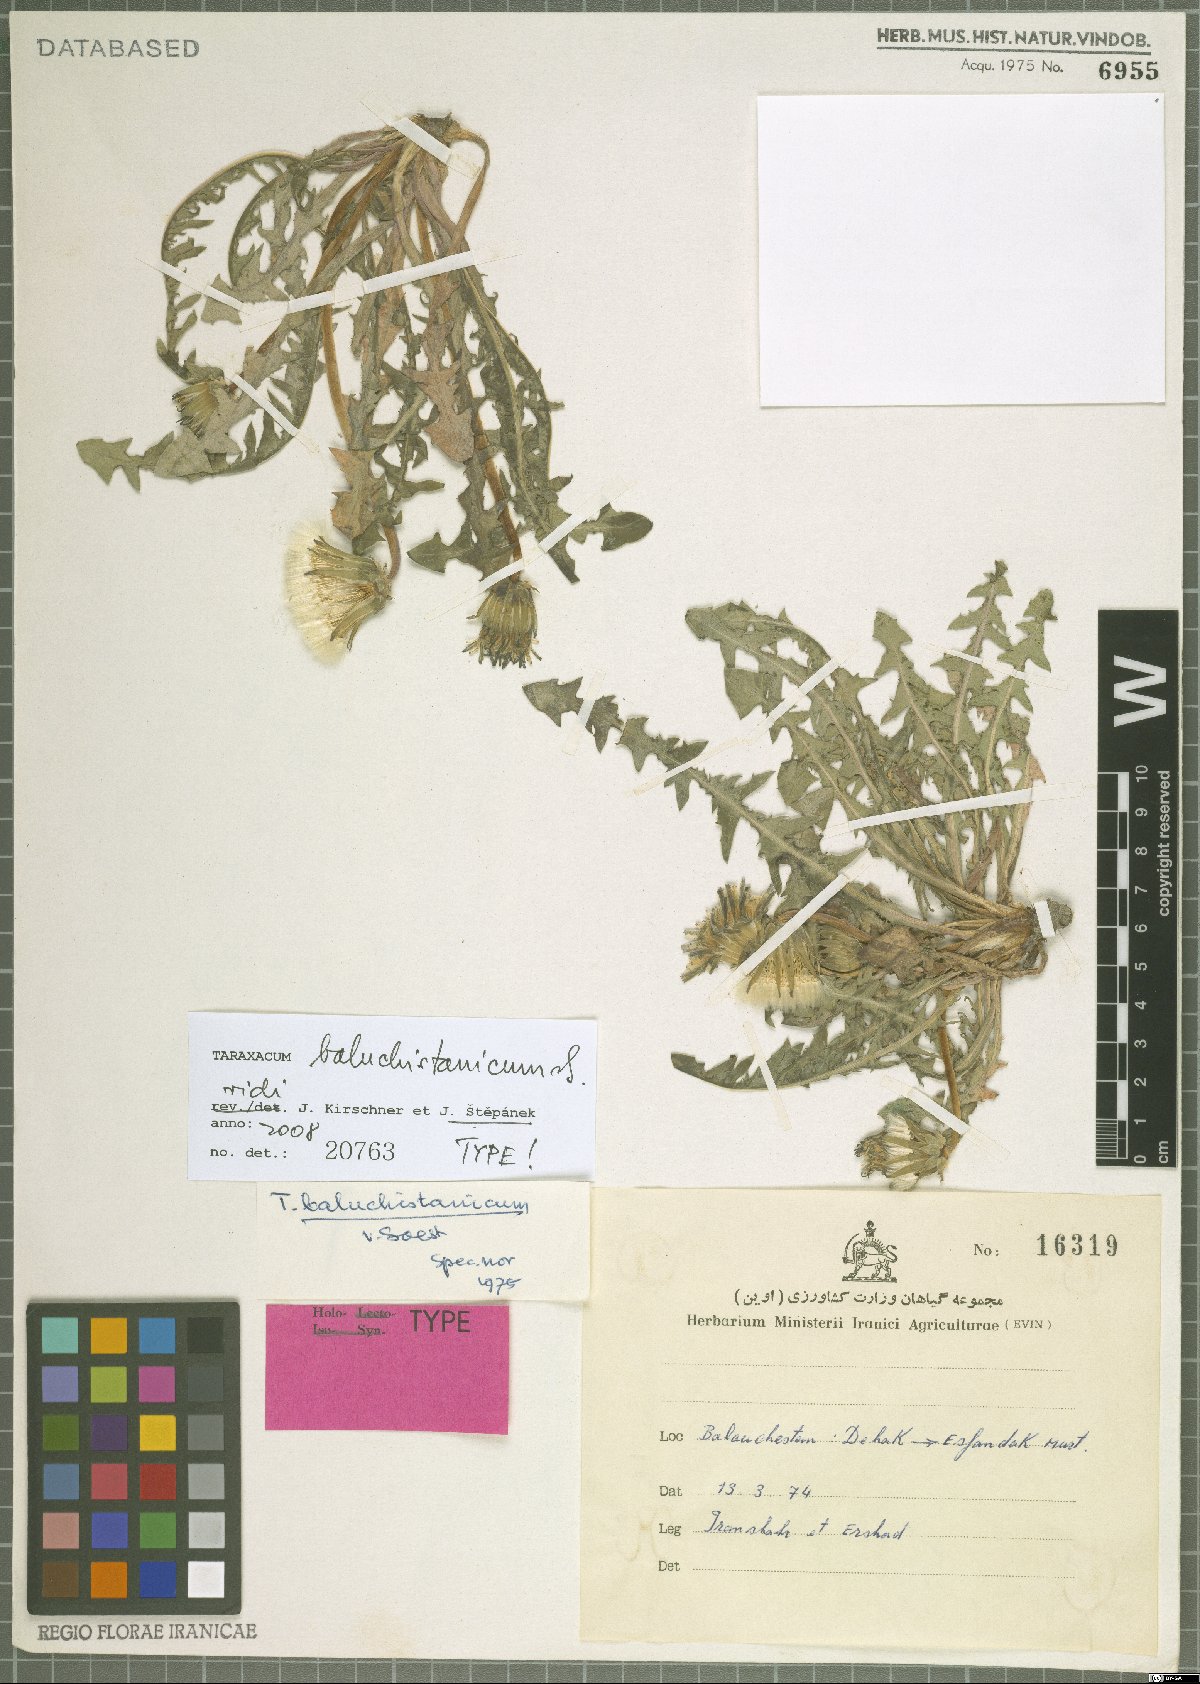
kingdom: Plantae
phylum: Tracheophyta
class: Magnoliopsida
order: Asterales
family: Asteraceae
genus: Taraxacum
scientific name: Taraxacum baluchistanicum
